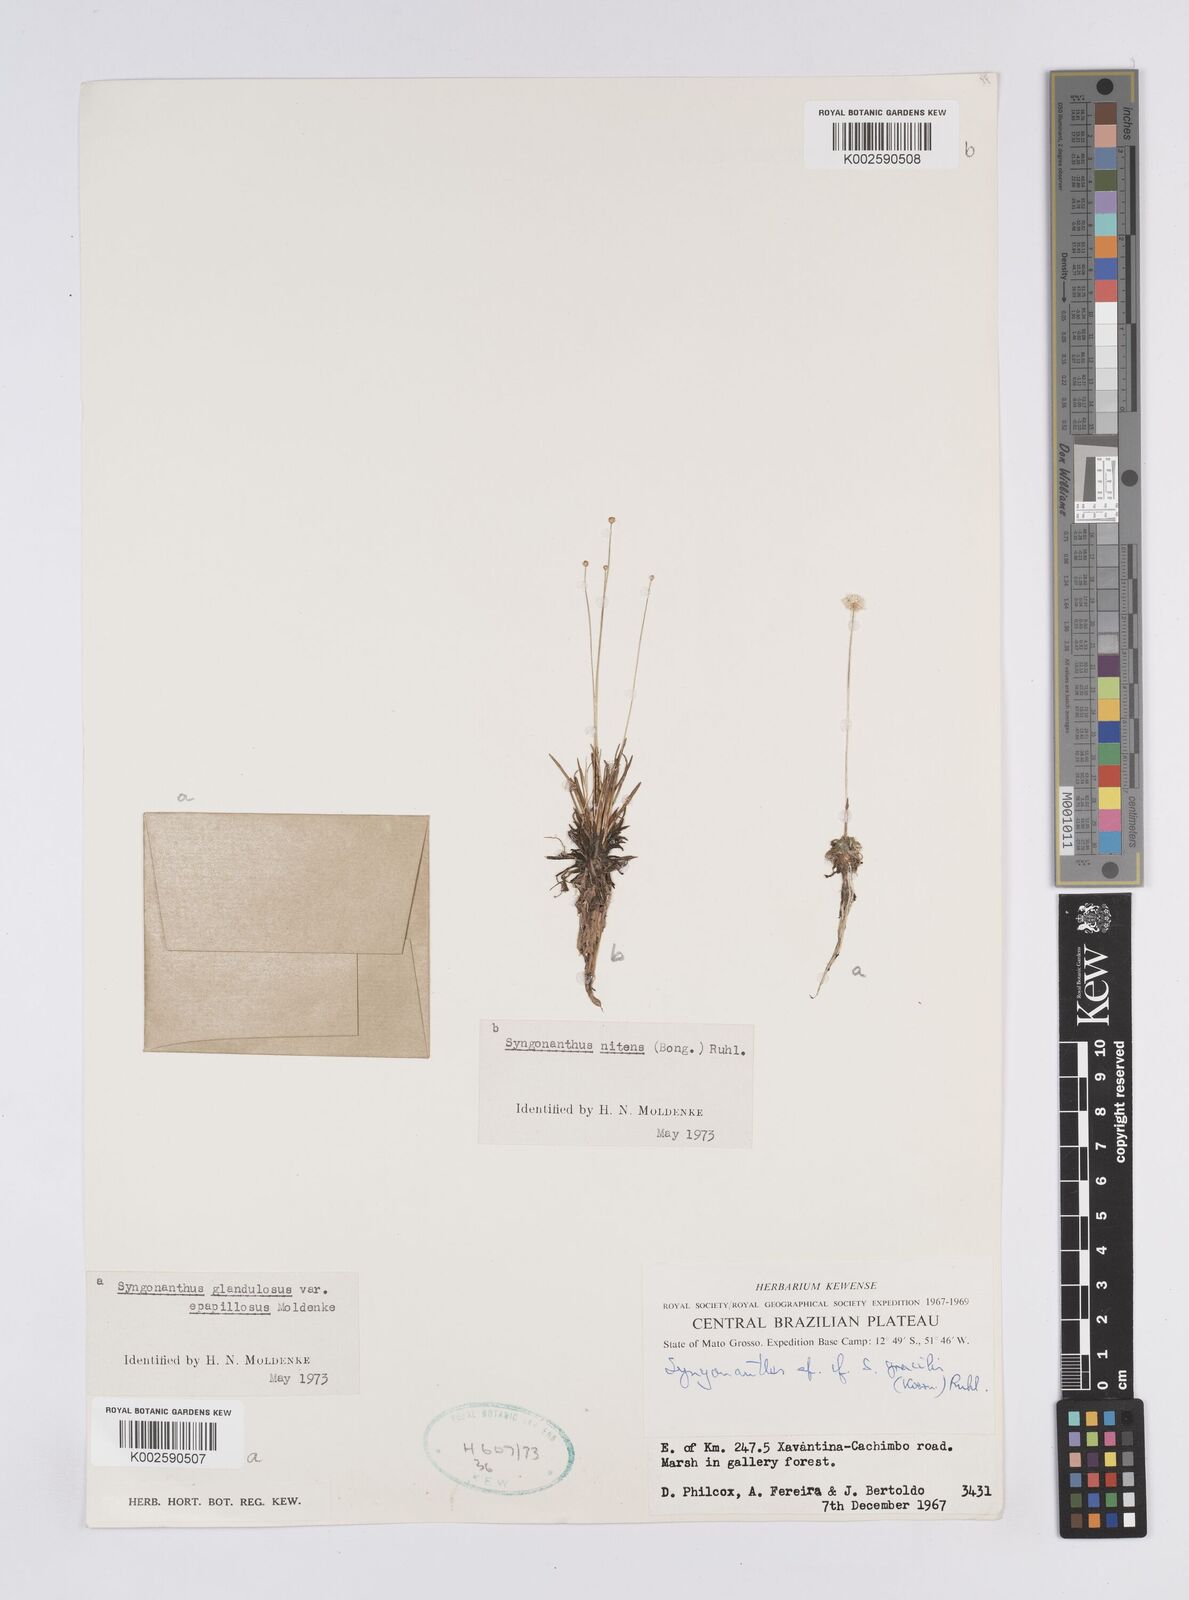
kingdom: Plantae
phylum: Tracheophyta
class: Liliopsida
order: Poales
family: Eriocaulaceae
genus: Syngonanthus
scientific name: Syngonanthus caulescens
